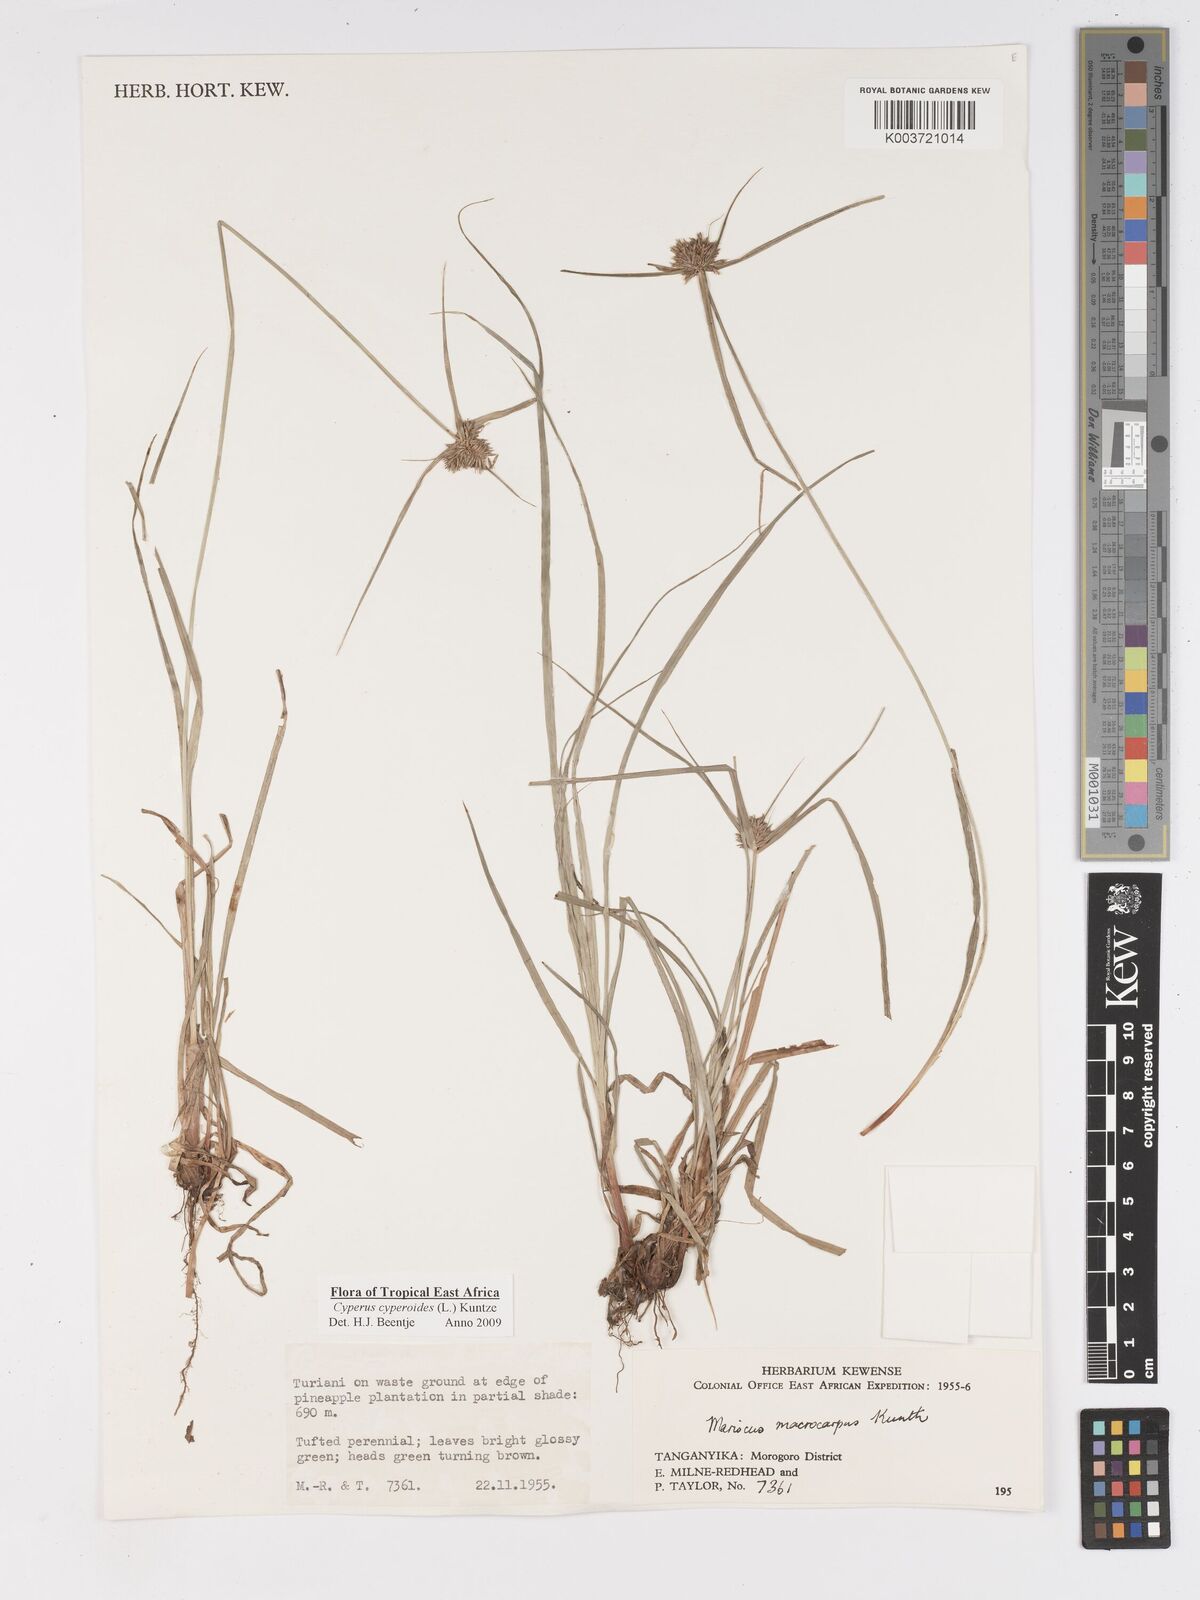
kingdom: Plantae
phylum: Tracheophyta
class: Liliopsida
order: Poales
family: Cyperaceae
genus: Cyperus
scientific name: Cyperus cyperoides
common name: Pacific island flat sedge
